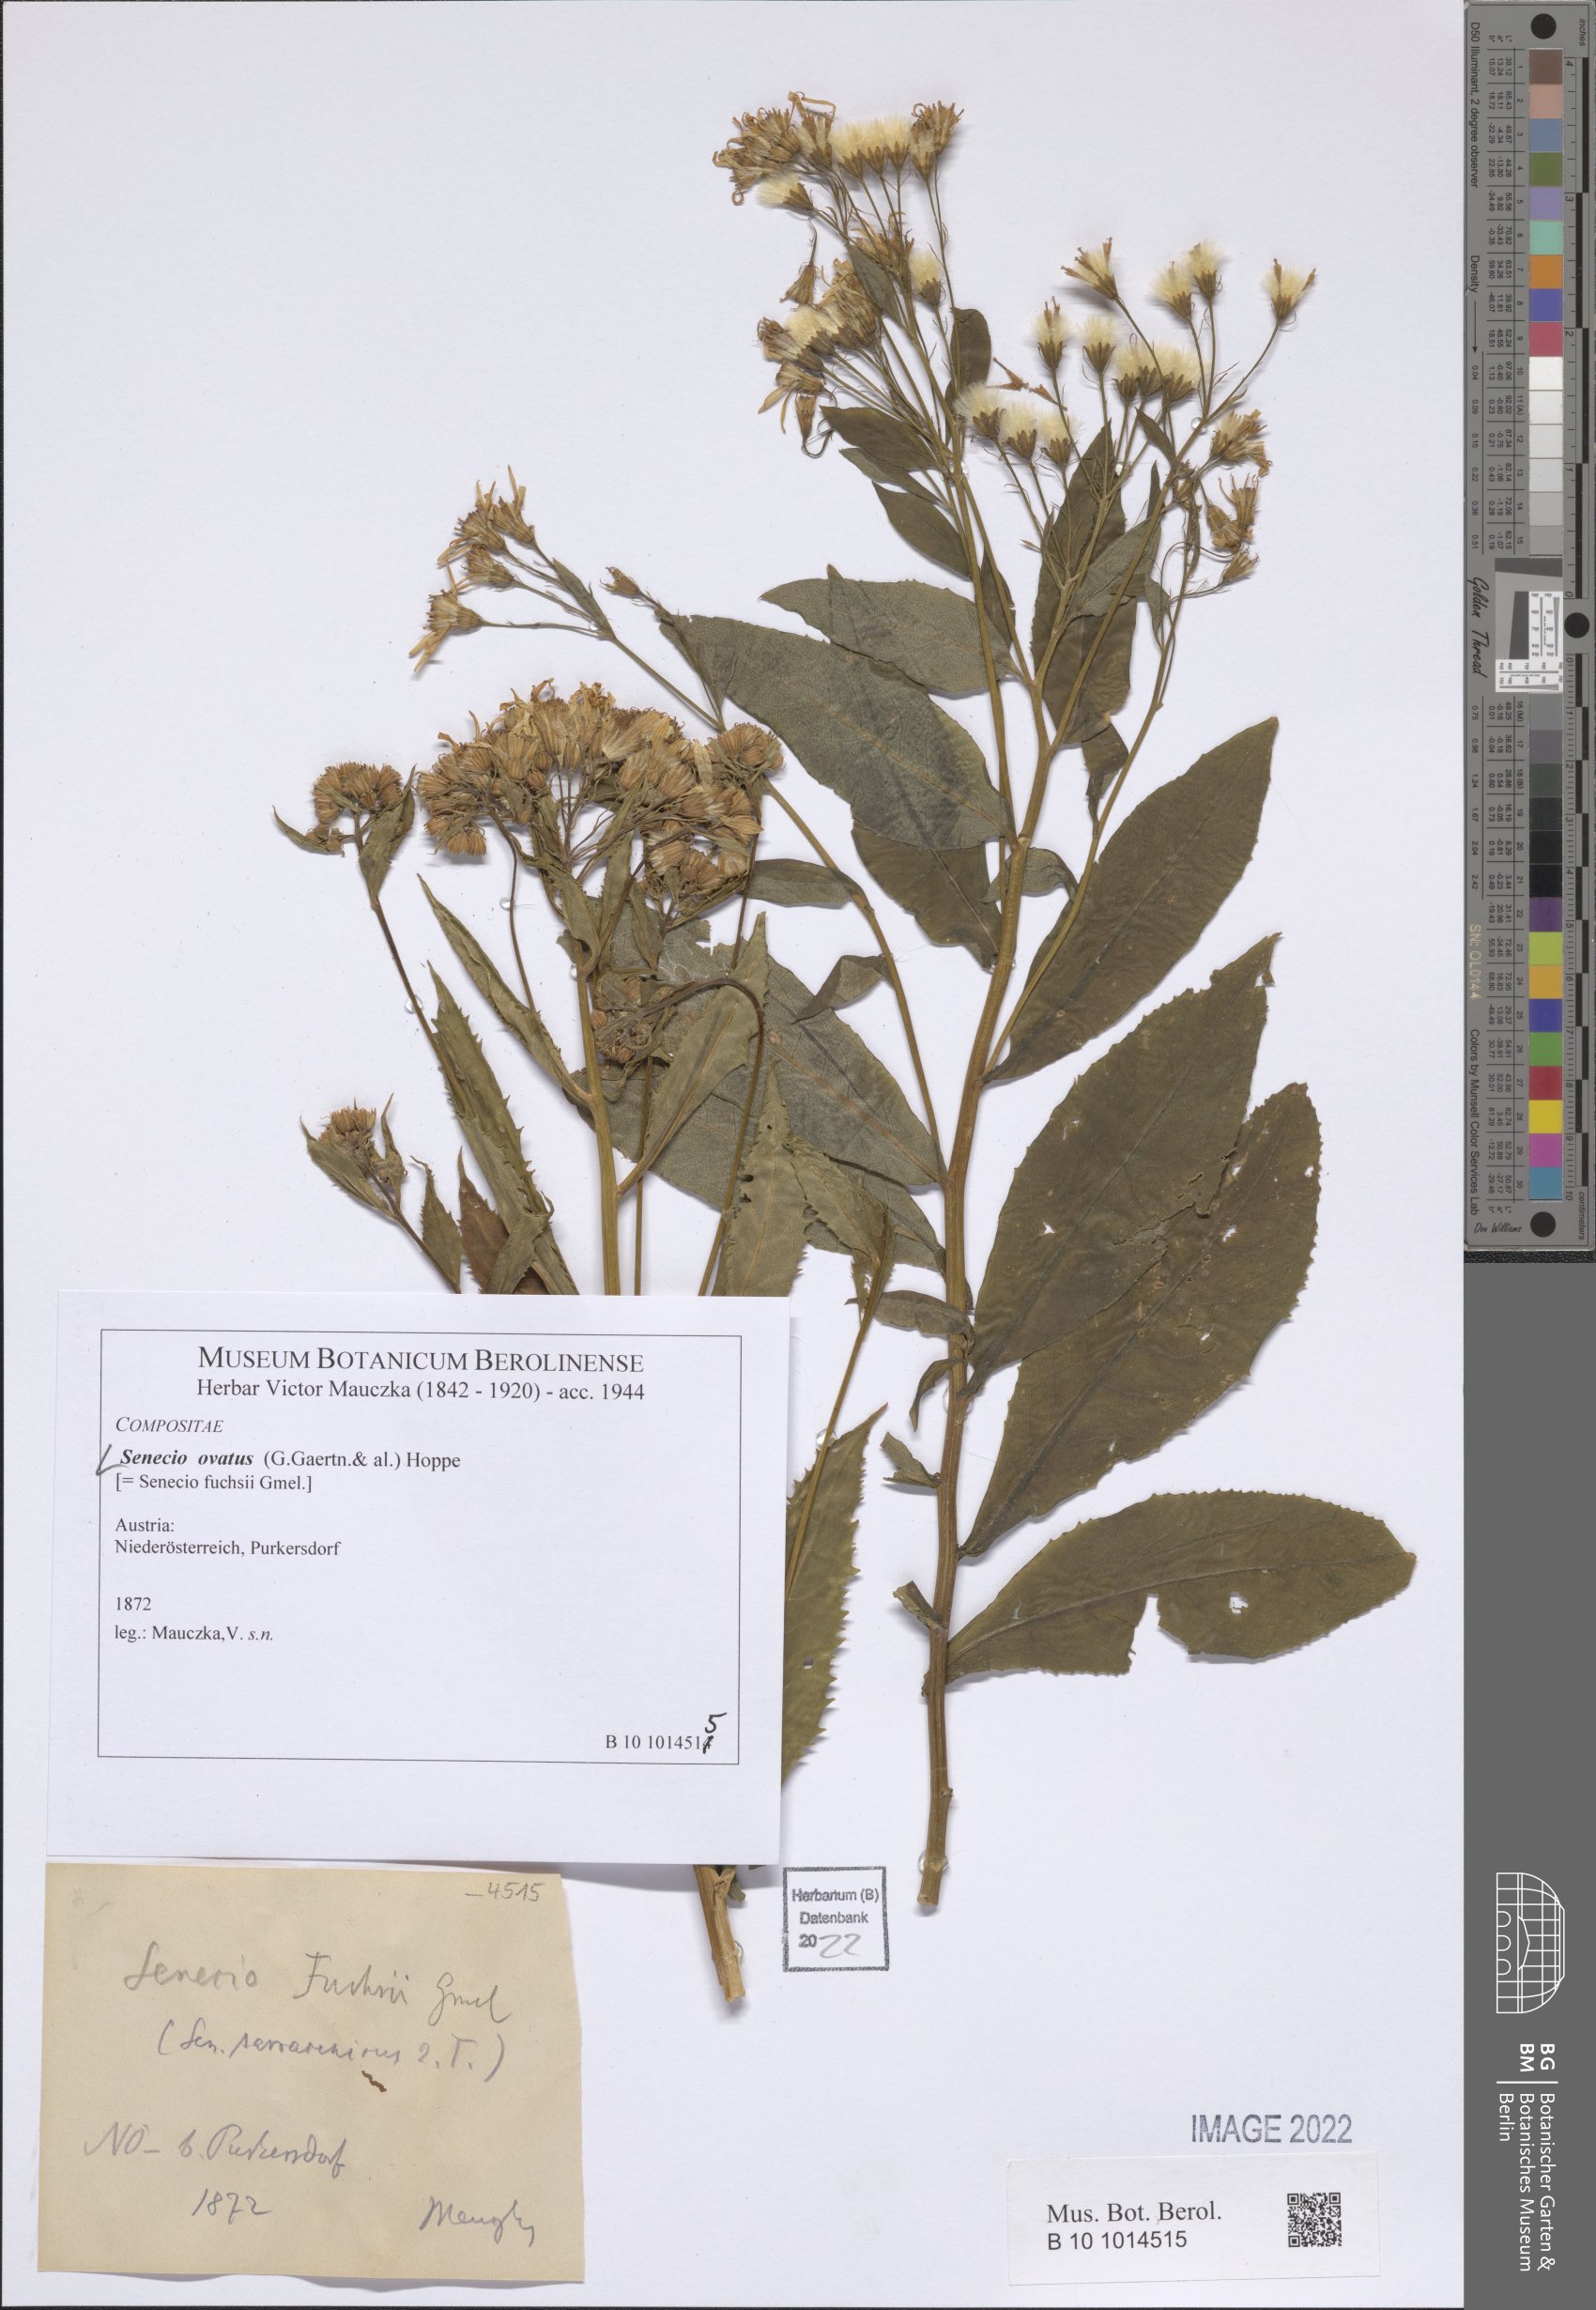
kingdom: Plantae
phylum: Tracheophyta
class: Magnoliopsida
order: Asterales
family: Asteraceae
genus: Senecio
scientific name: Senecio ovatus
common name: Wood ragwort
